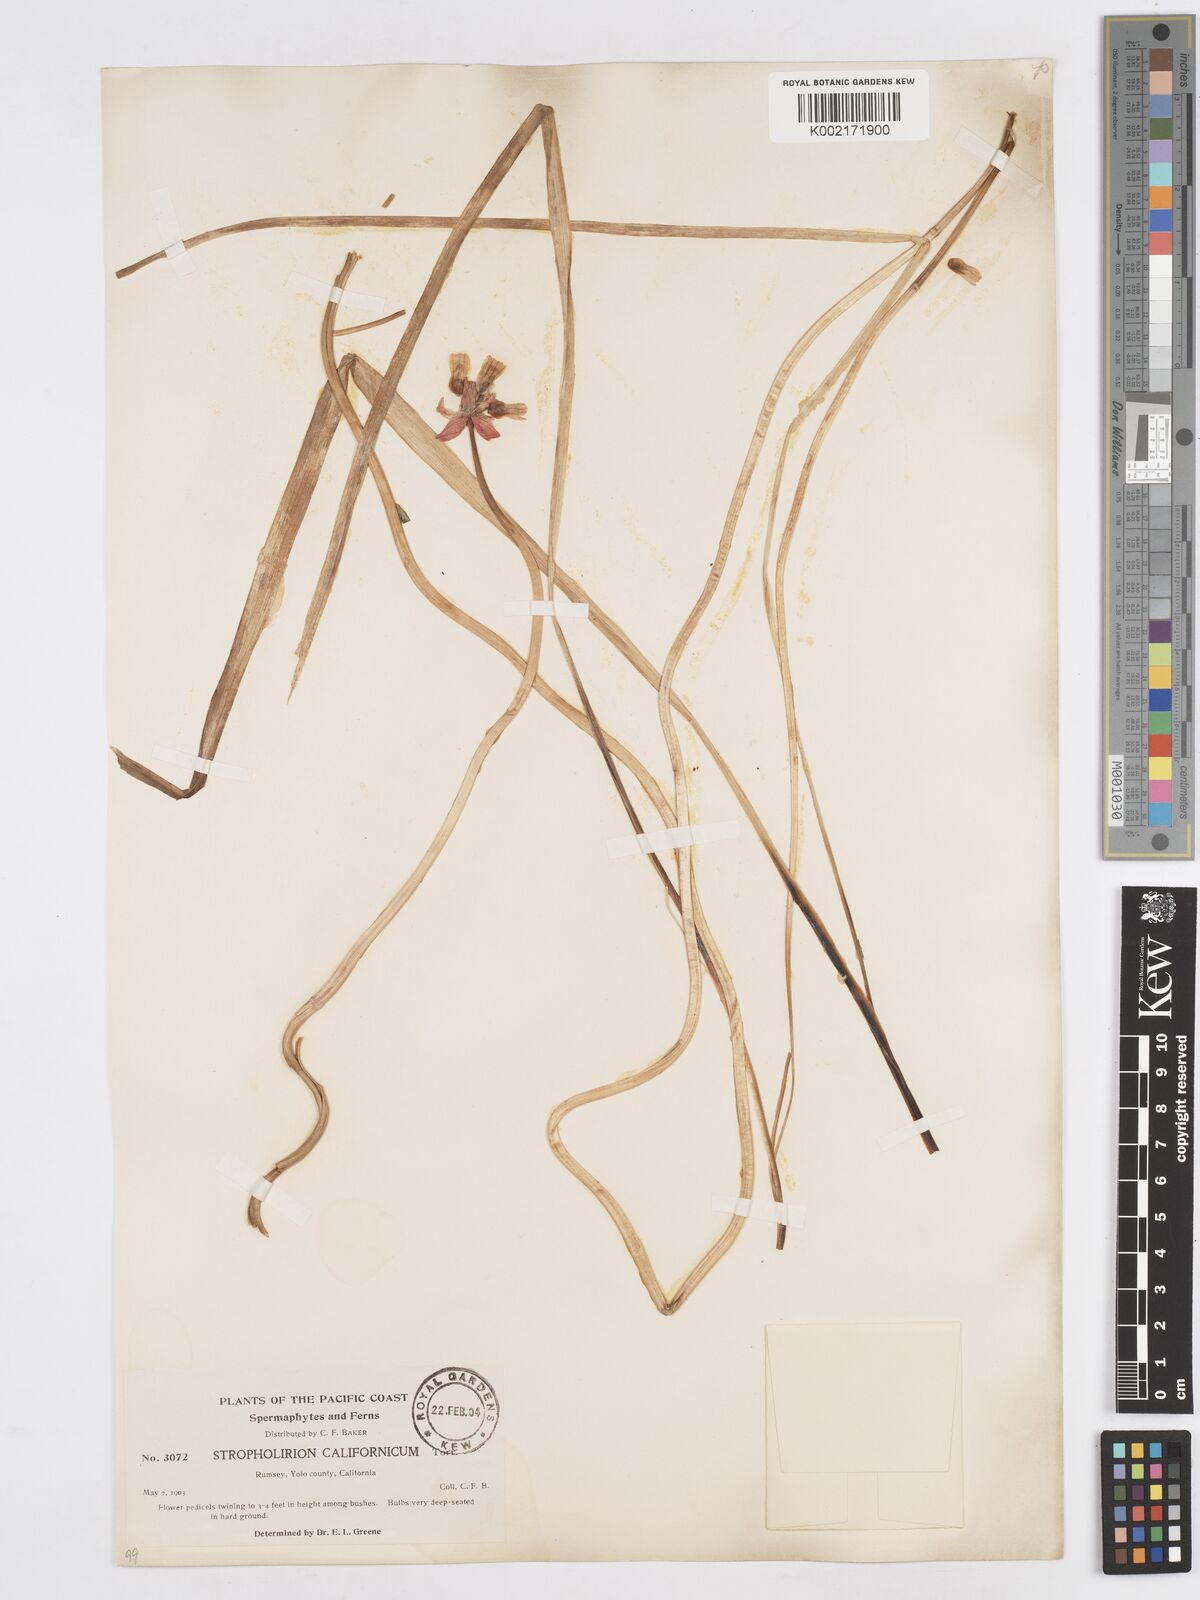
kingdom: Plantae
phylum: Tracheophyta
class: Liliopsida
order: Asparagales
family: Asparagaceae
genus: Dichelostemma
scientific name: Dichelostemma volubile
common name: Trining brodiaea
